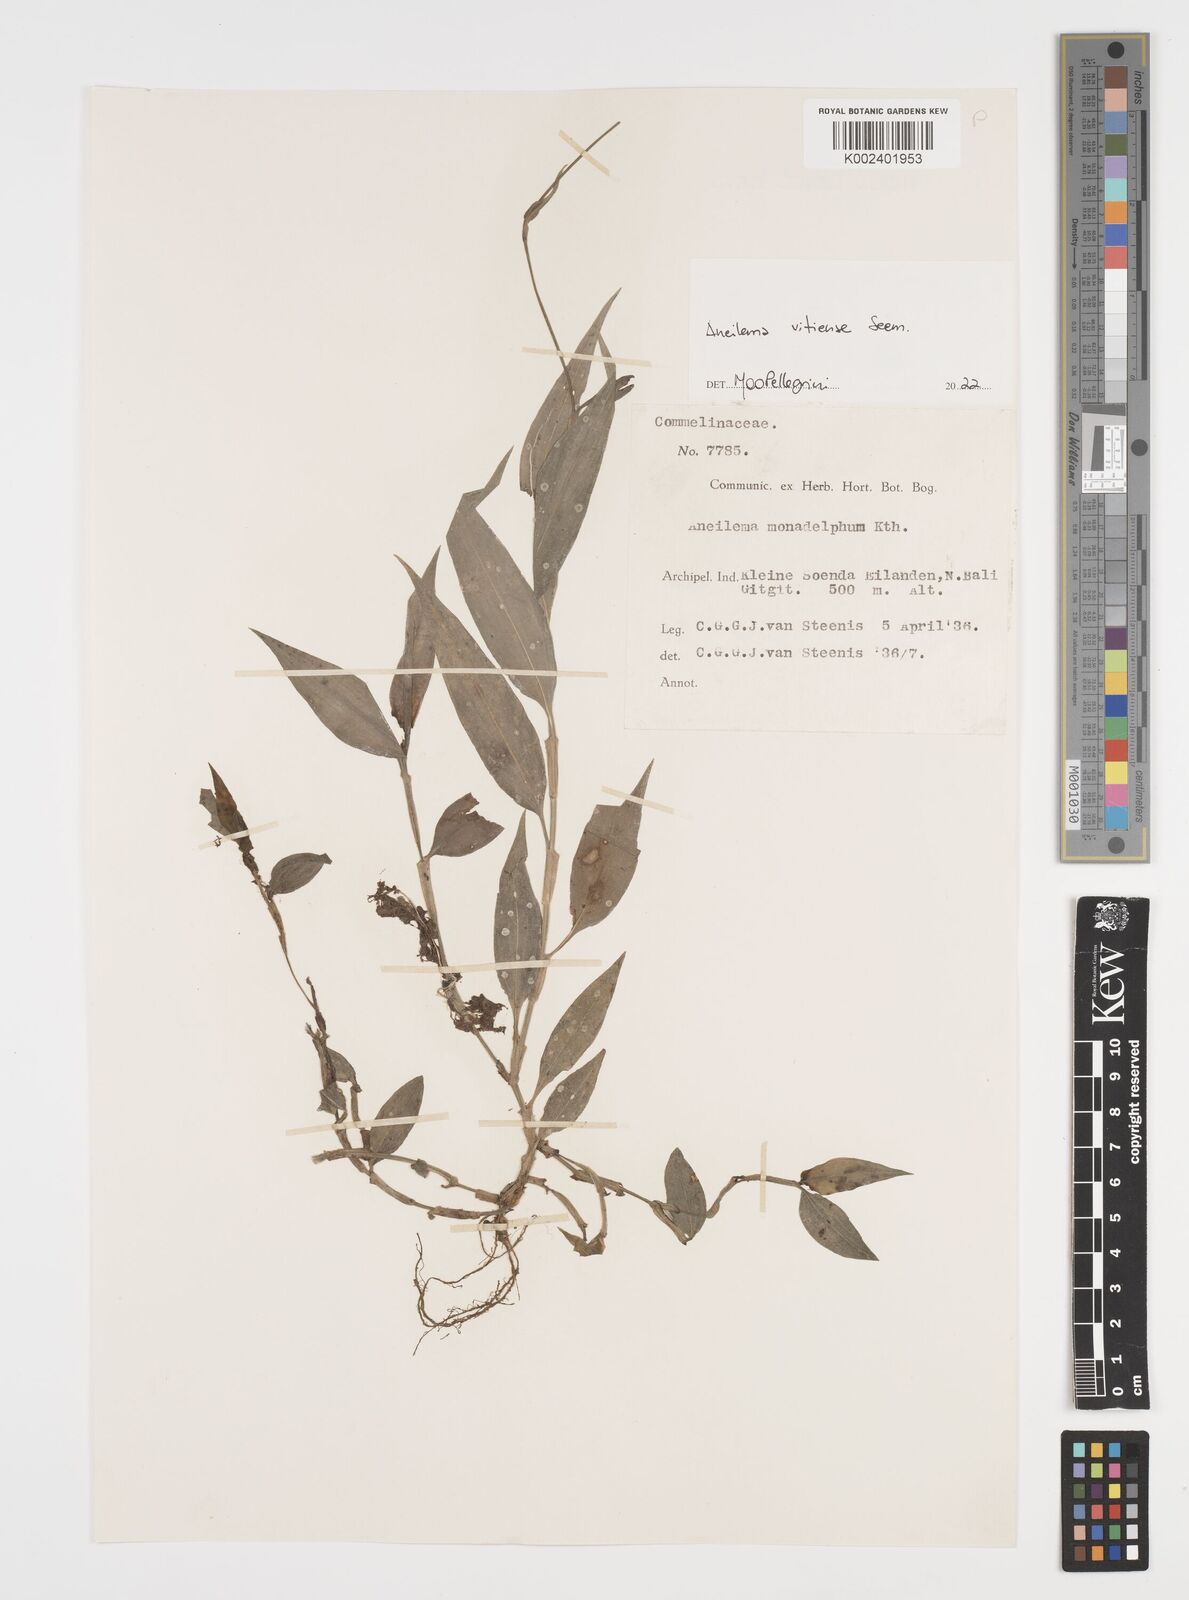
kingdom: Plantae
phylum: Tracheophyta
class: Liliopsida
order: Commelinales
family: Commelinaceae
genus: Rhopalephora
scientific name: Rhopalephora vitiensis
